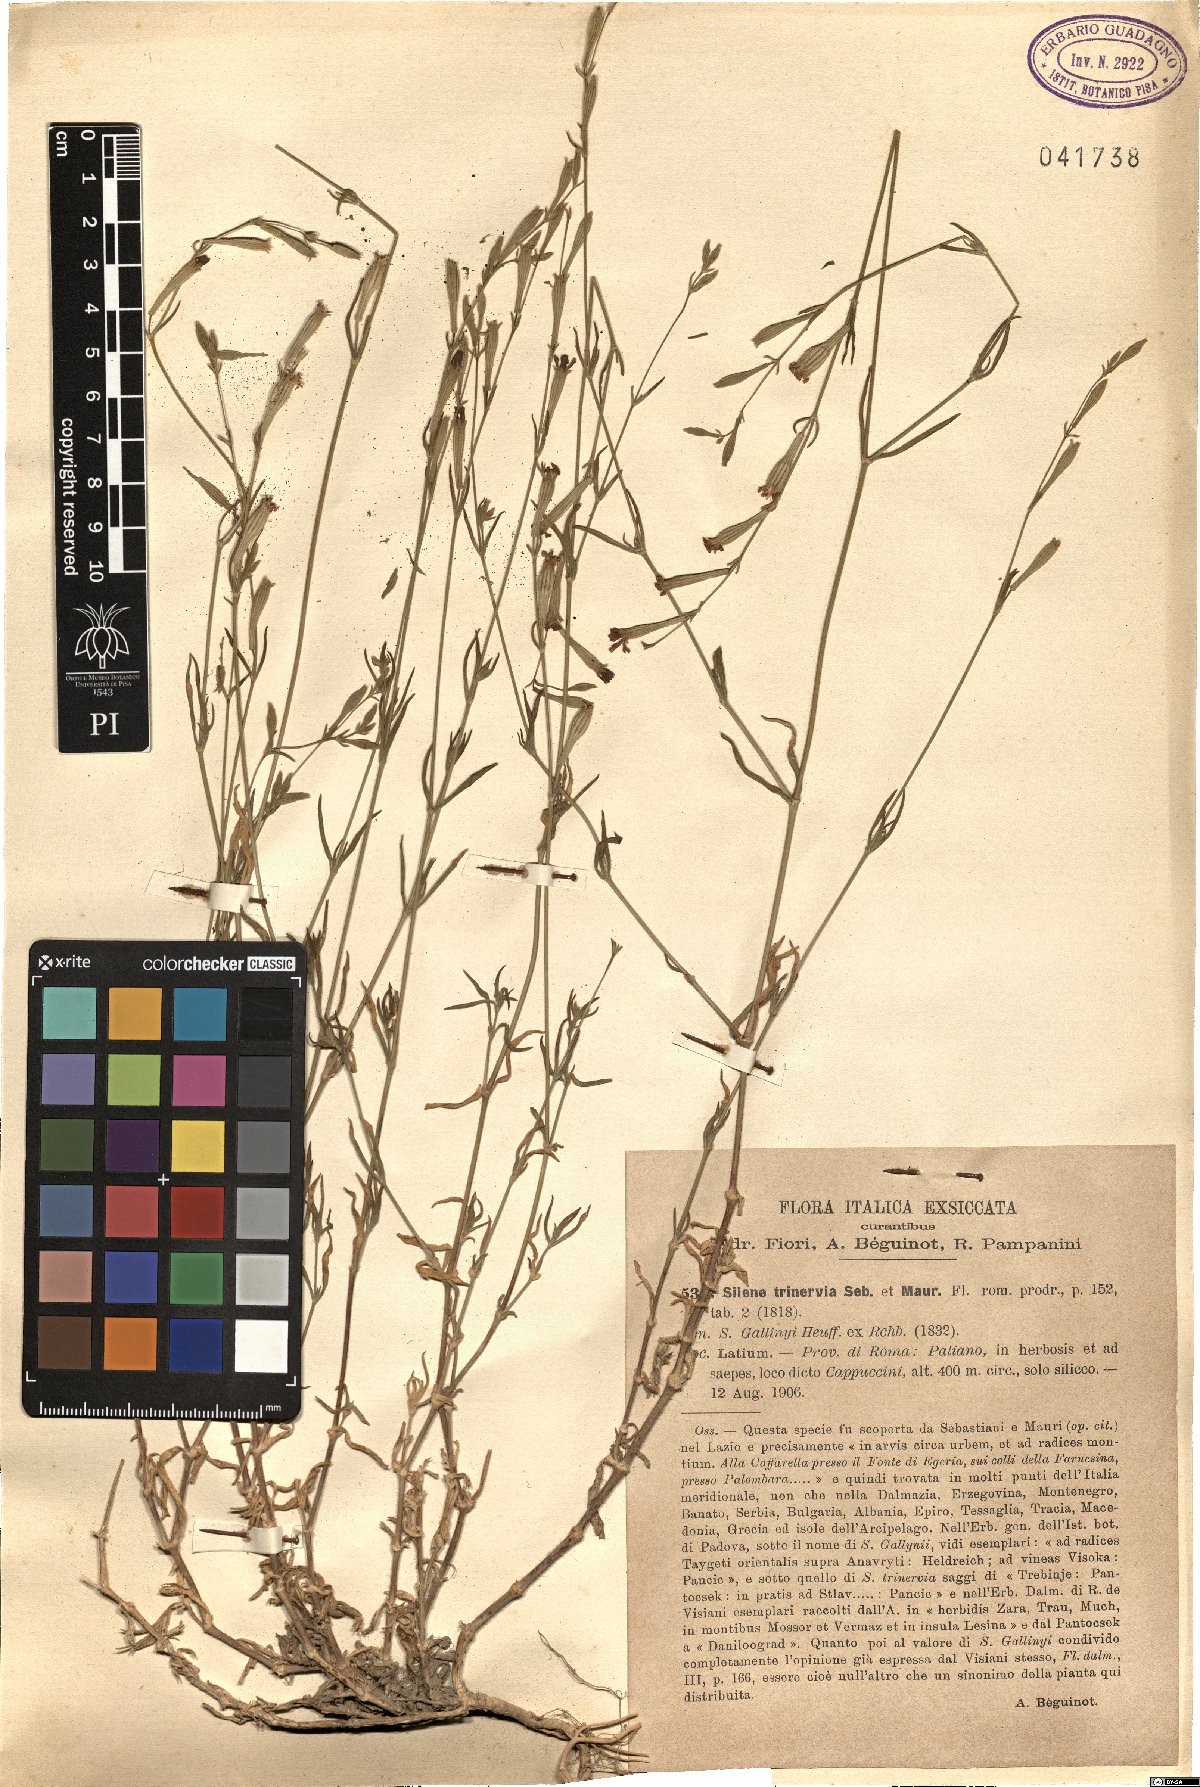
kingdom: Plantae
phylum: Tracheophyta
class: Magnoliopsida
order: Caryophyllales
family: Caryophyllaceae
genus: Silene
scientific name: Silene gallinyi
